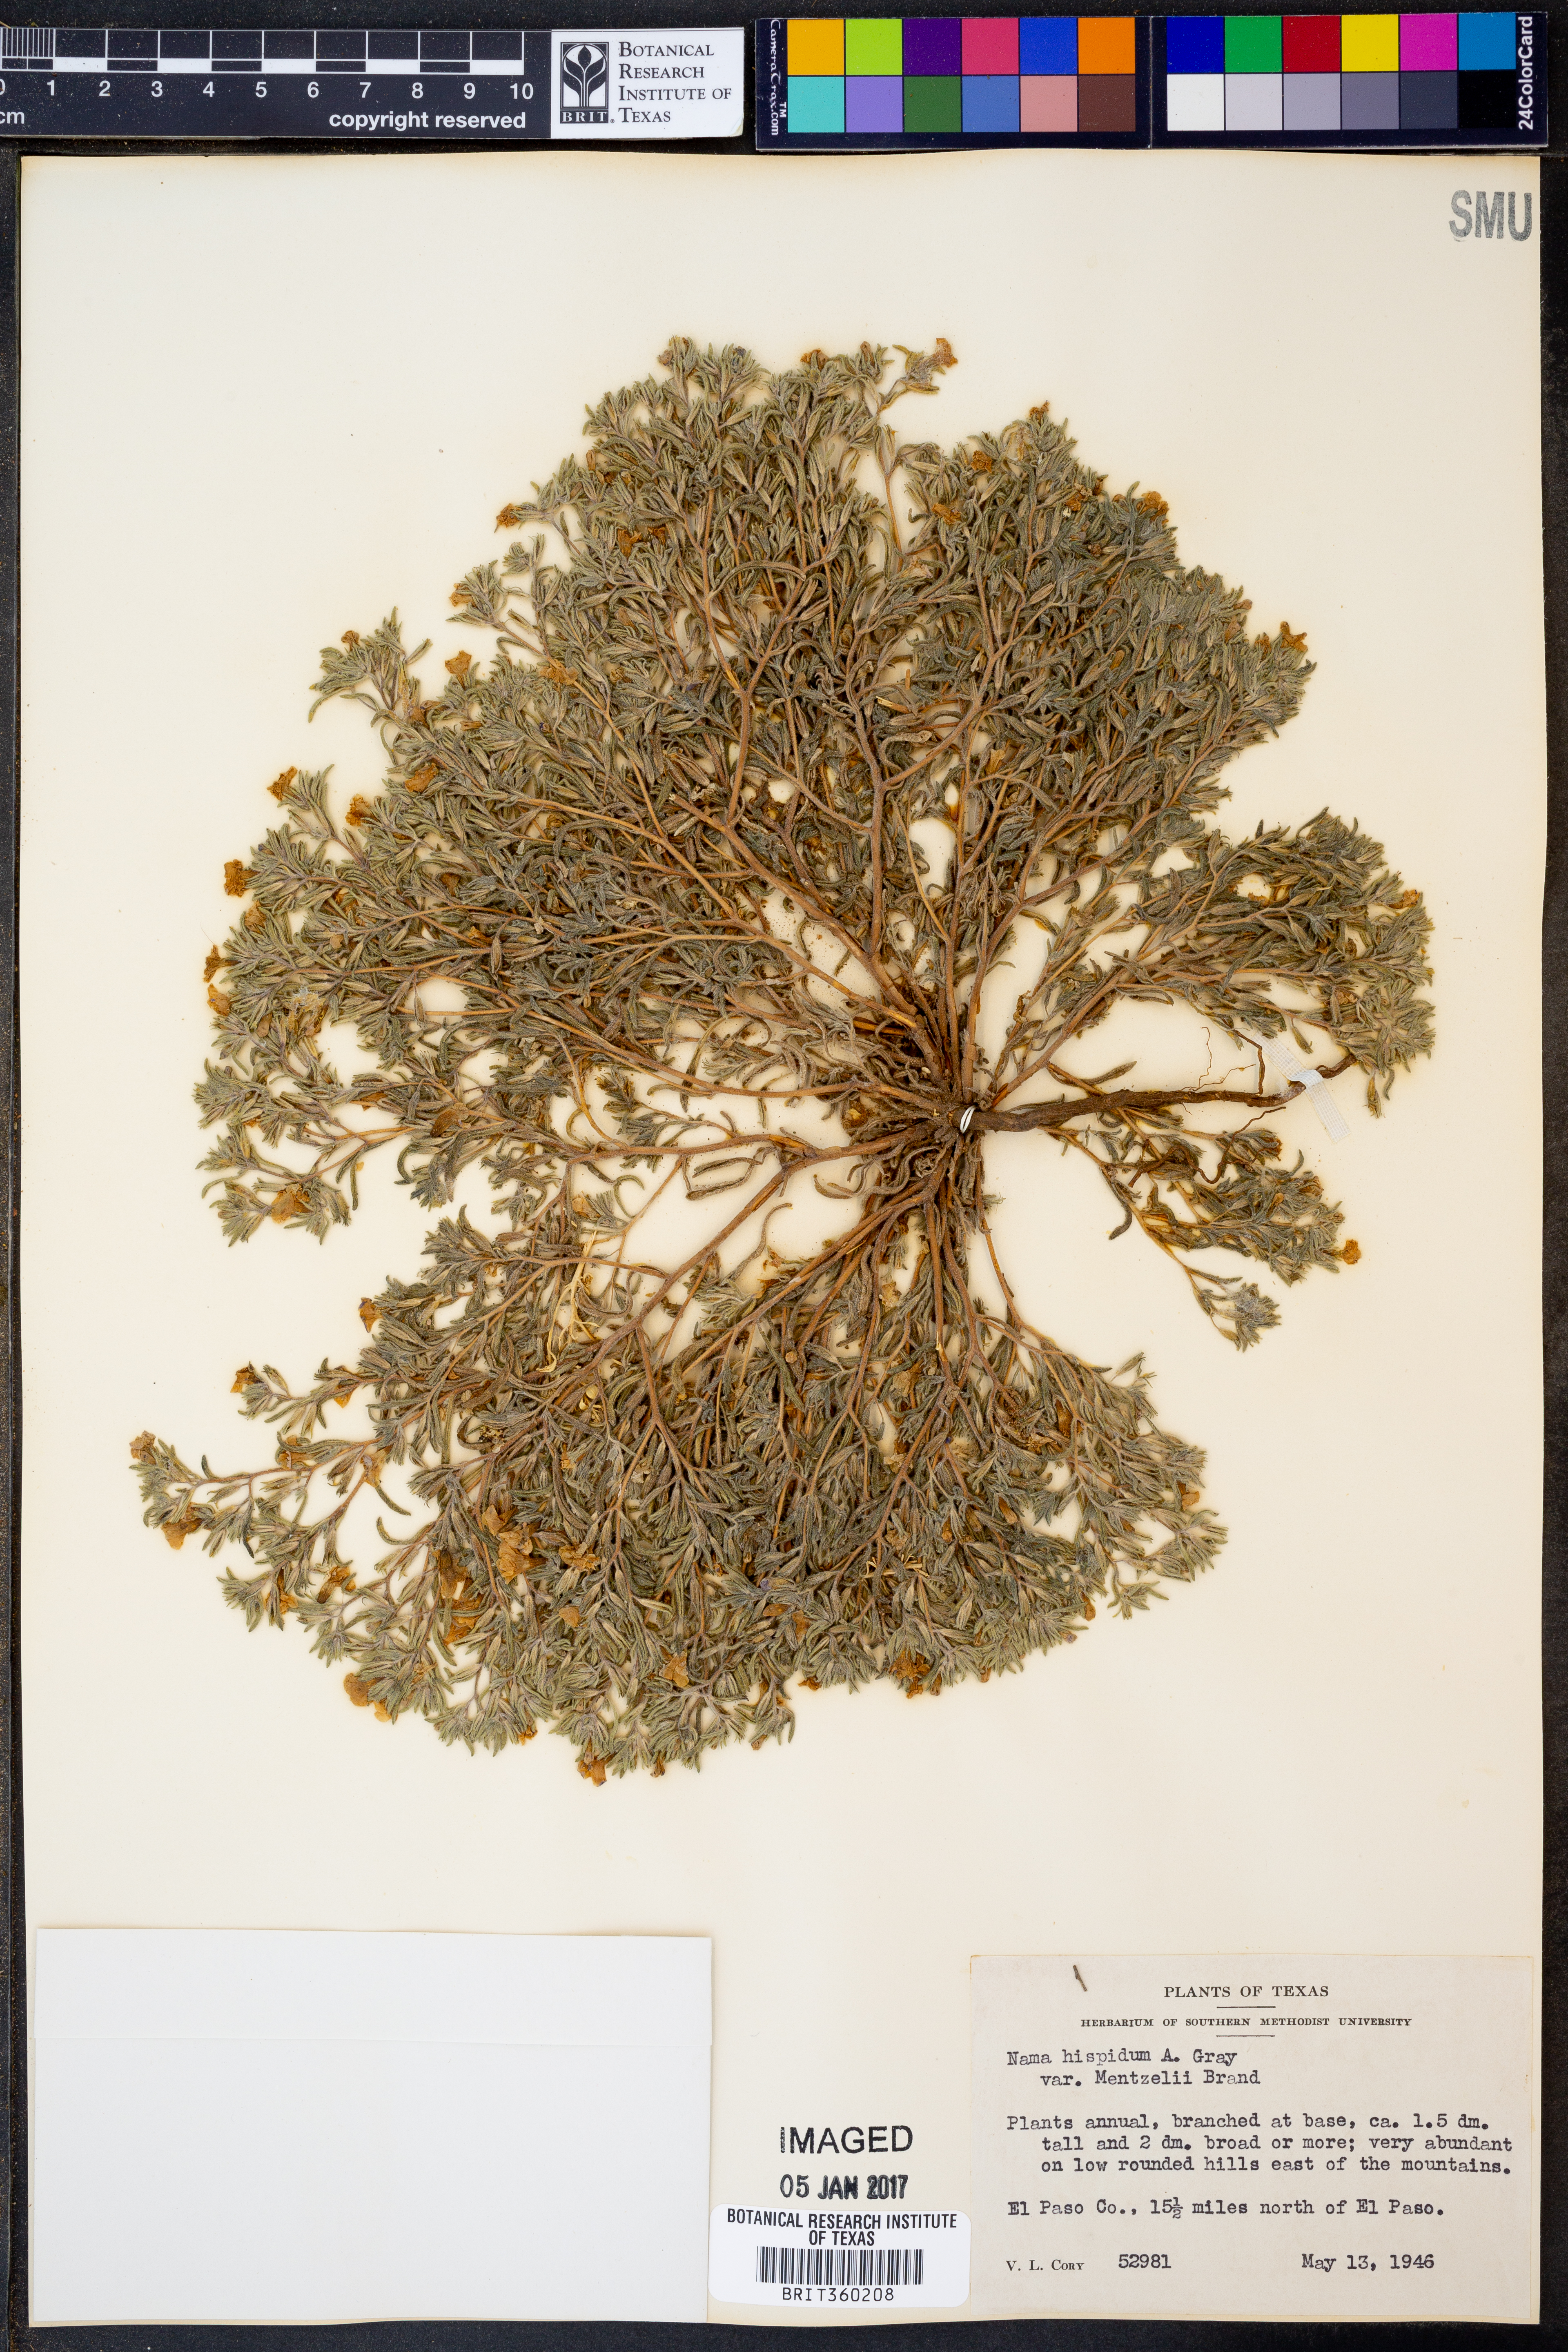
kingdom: Plantae
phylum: Tracheophyta
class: Magnoliopsida
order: Boraginales
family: Namaceae
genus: Nama
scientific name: Nama hispida
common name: Bristly nama
